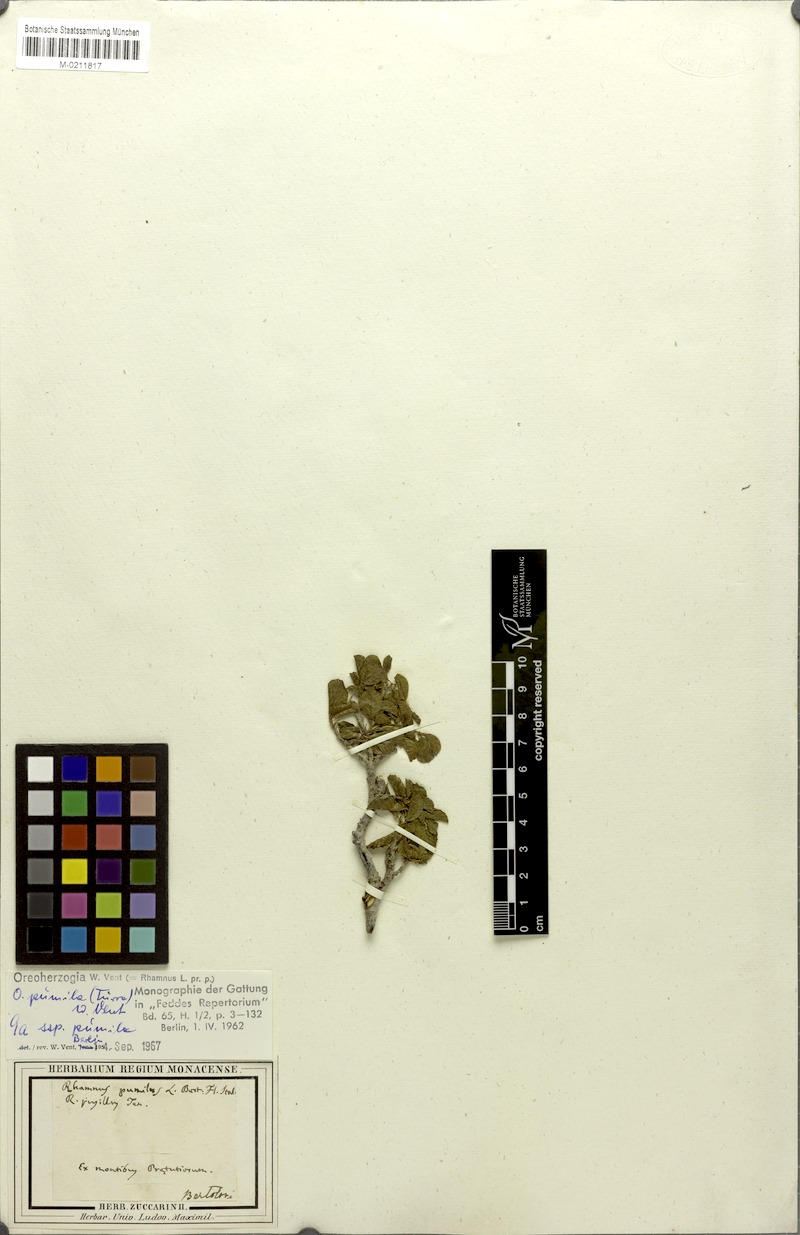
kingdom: Plantae
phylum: Tracheophyta
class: Magnoliopsida
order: Rosales
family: Rhamnaceae
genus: Atadinus
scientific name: Atadinus pumilus
